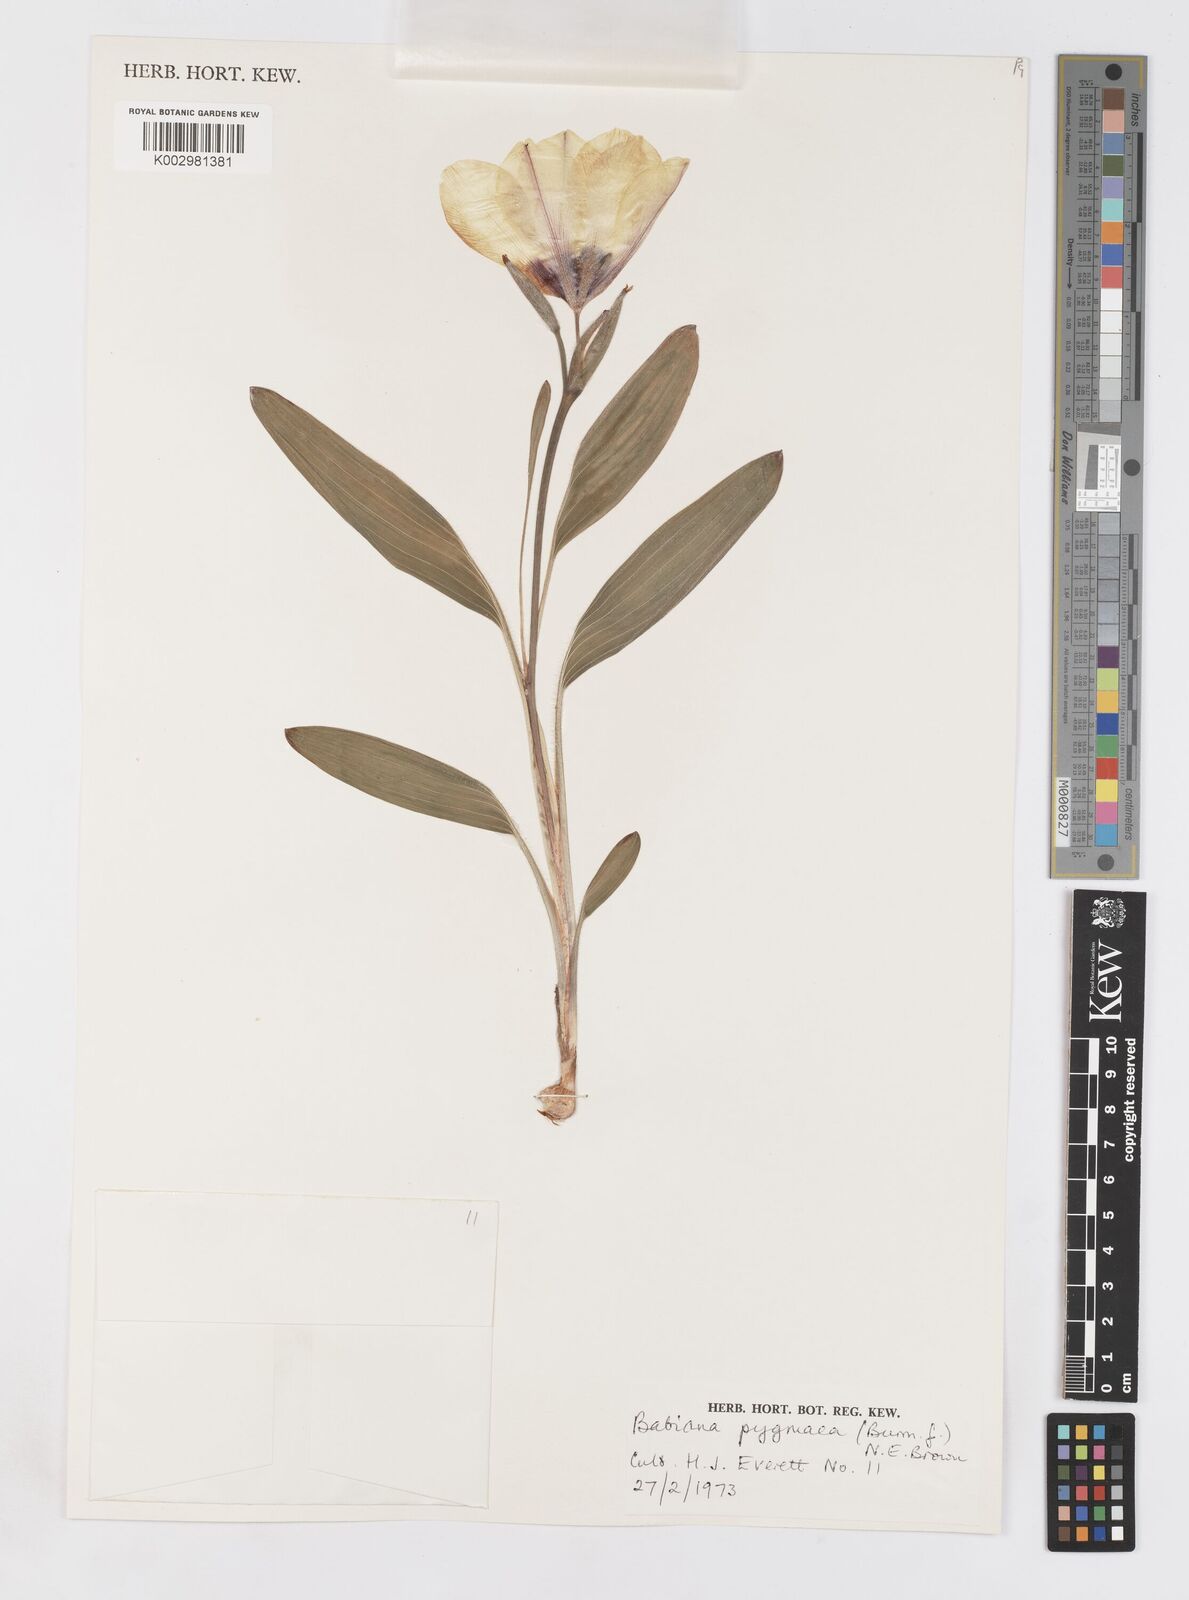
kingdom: Plantae
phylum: Tracheophyta
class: Liliopsida
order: Asparagales
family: Iridaceae
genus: Babiana
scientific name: Babiana pygmaea
